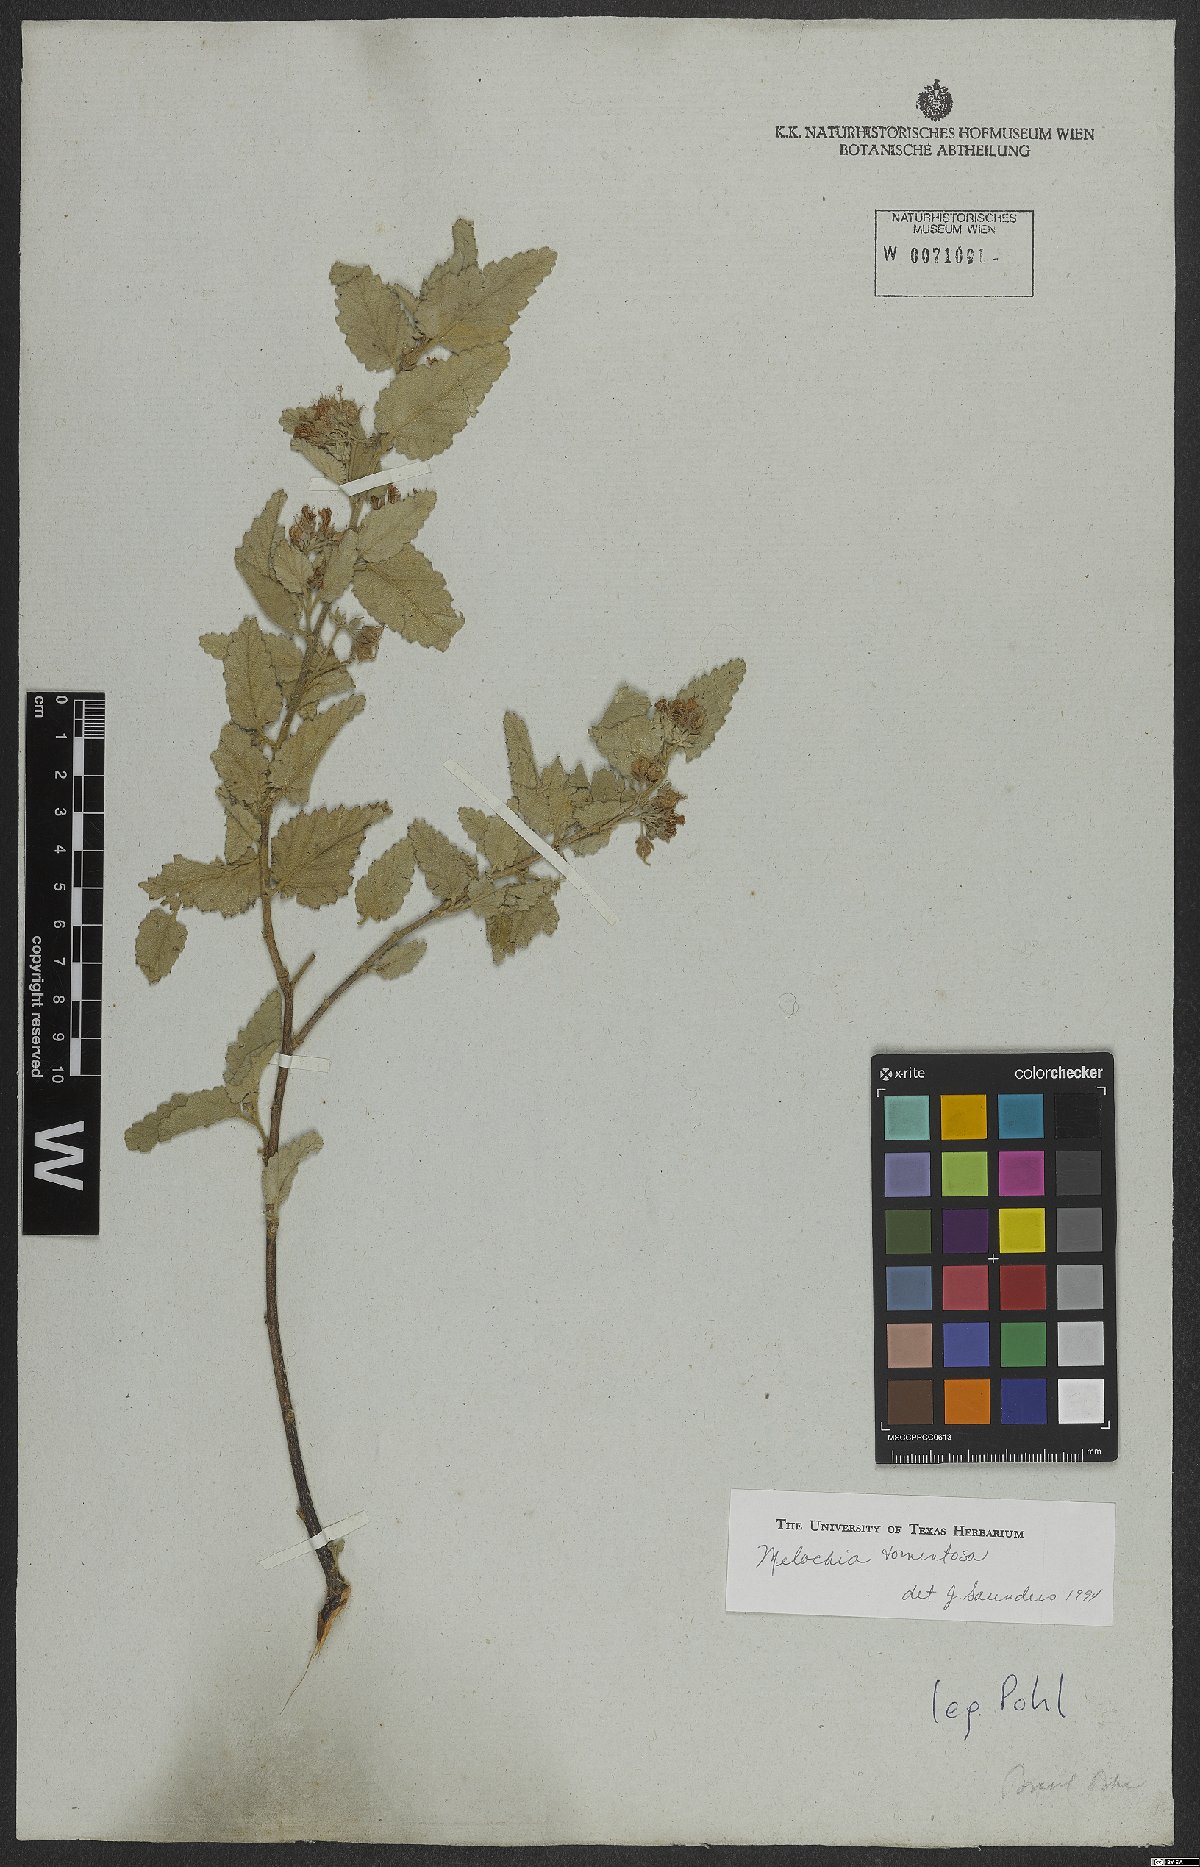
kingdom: Plantae
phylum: Tracheophyta
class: Magnoliopsida
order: Malvales
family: Malvaceae
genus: Melochia
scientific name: Melochia tomentosa
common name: Black torch
